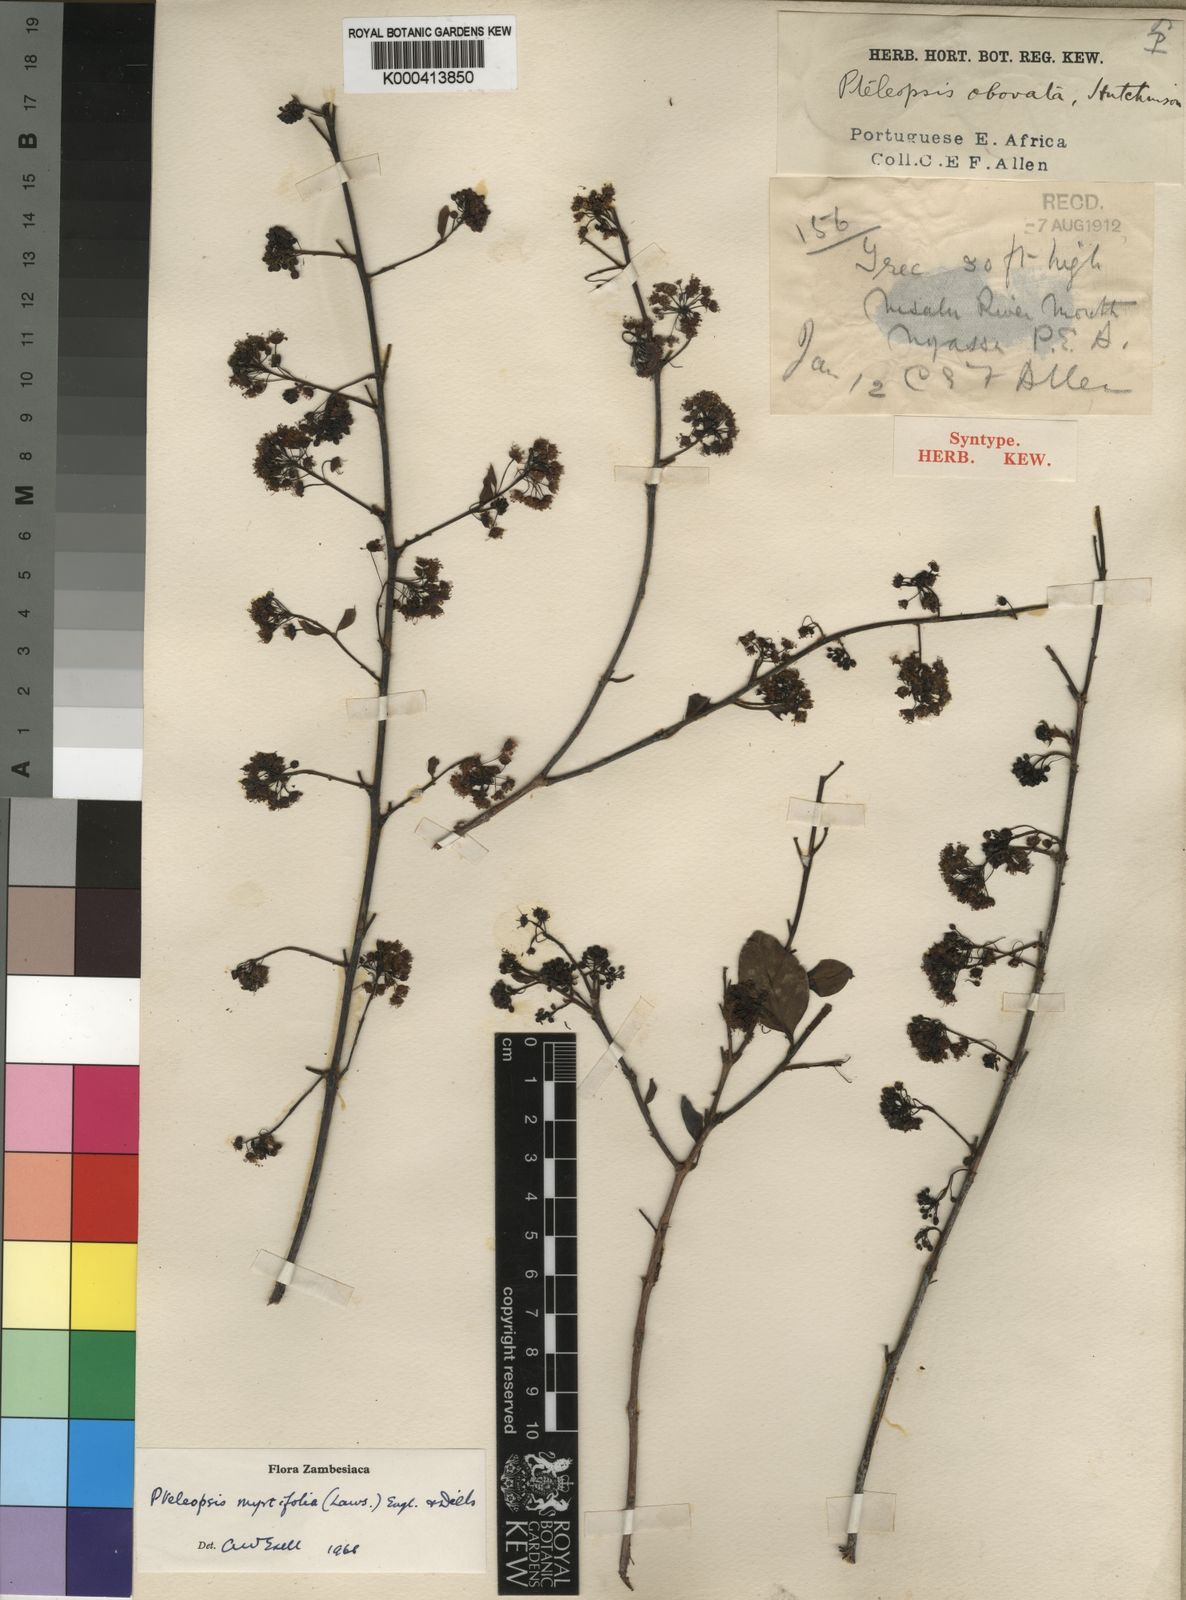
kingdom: Plantae
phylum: Tracheophyta
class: Magnoliopsida
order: Myrtales
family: Combretaceae
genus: Terminalia
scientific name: Terminalia myrtifolia
